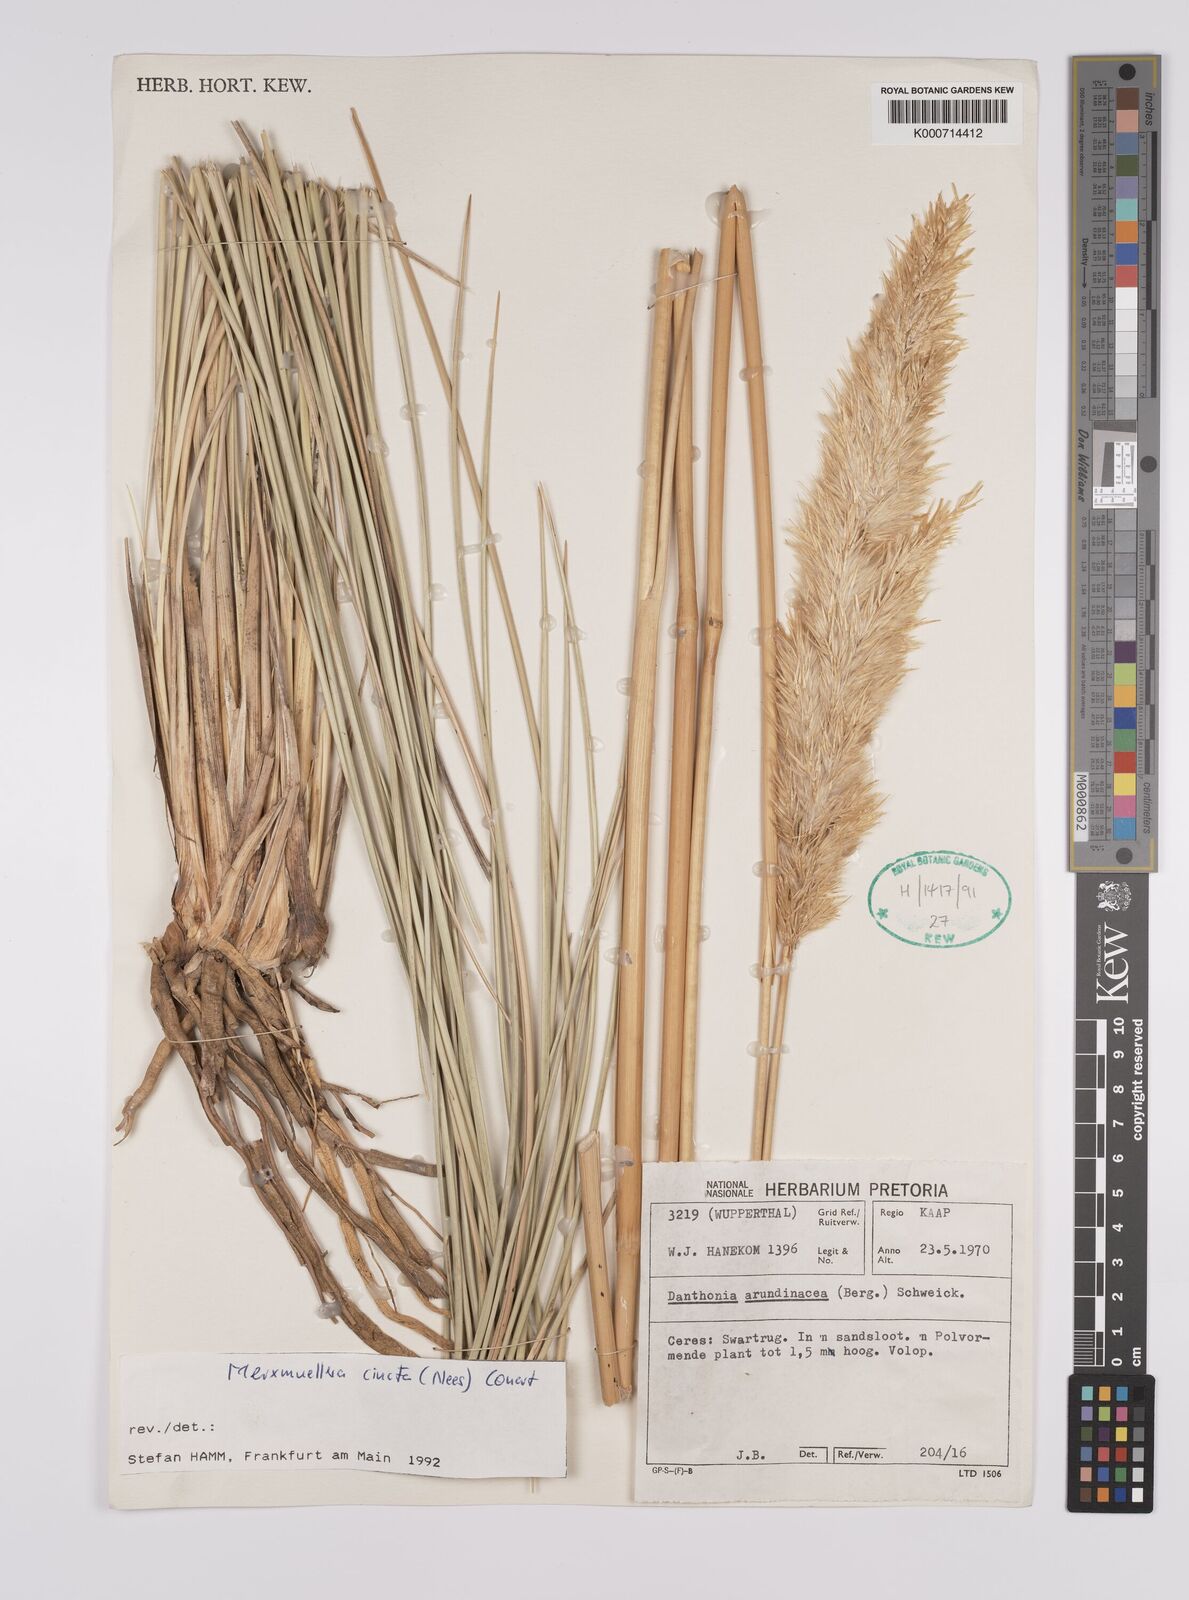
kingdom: Plantae
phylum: Tracheophyta
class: Liliopsida
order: Poales
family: Poaceae
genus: Rytidosperma
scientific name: Rytidosperma
